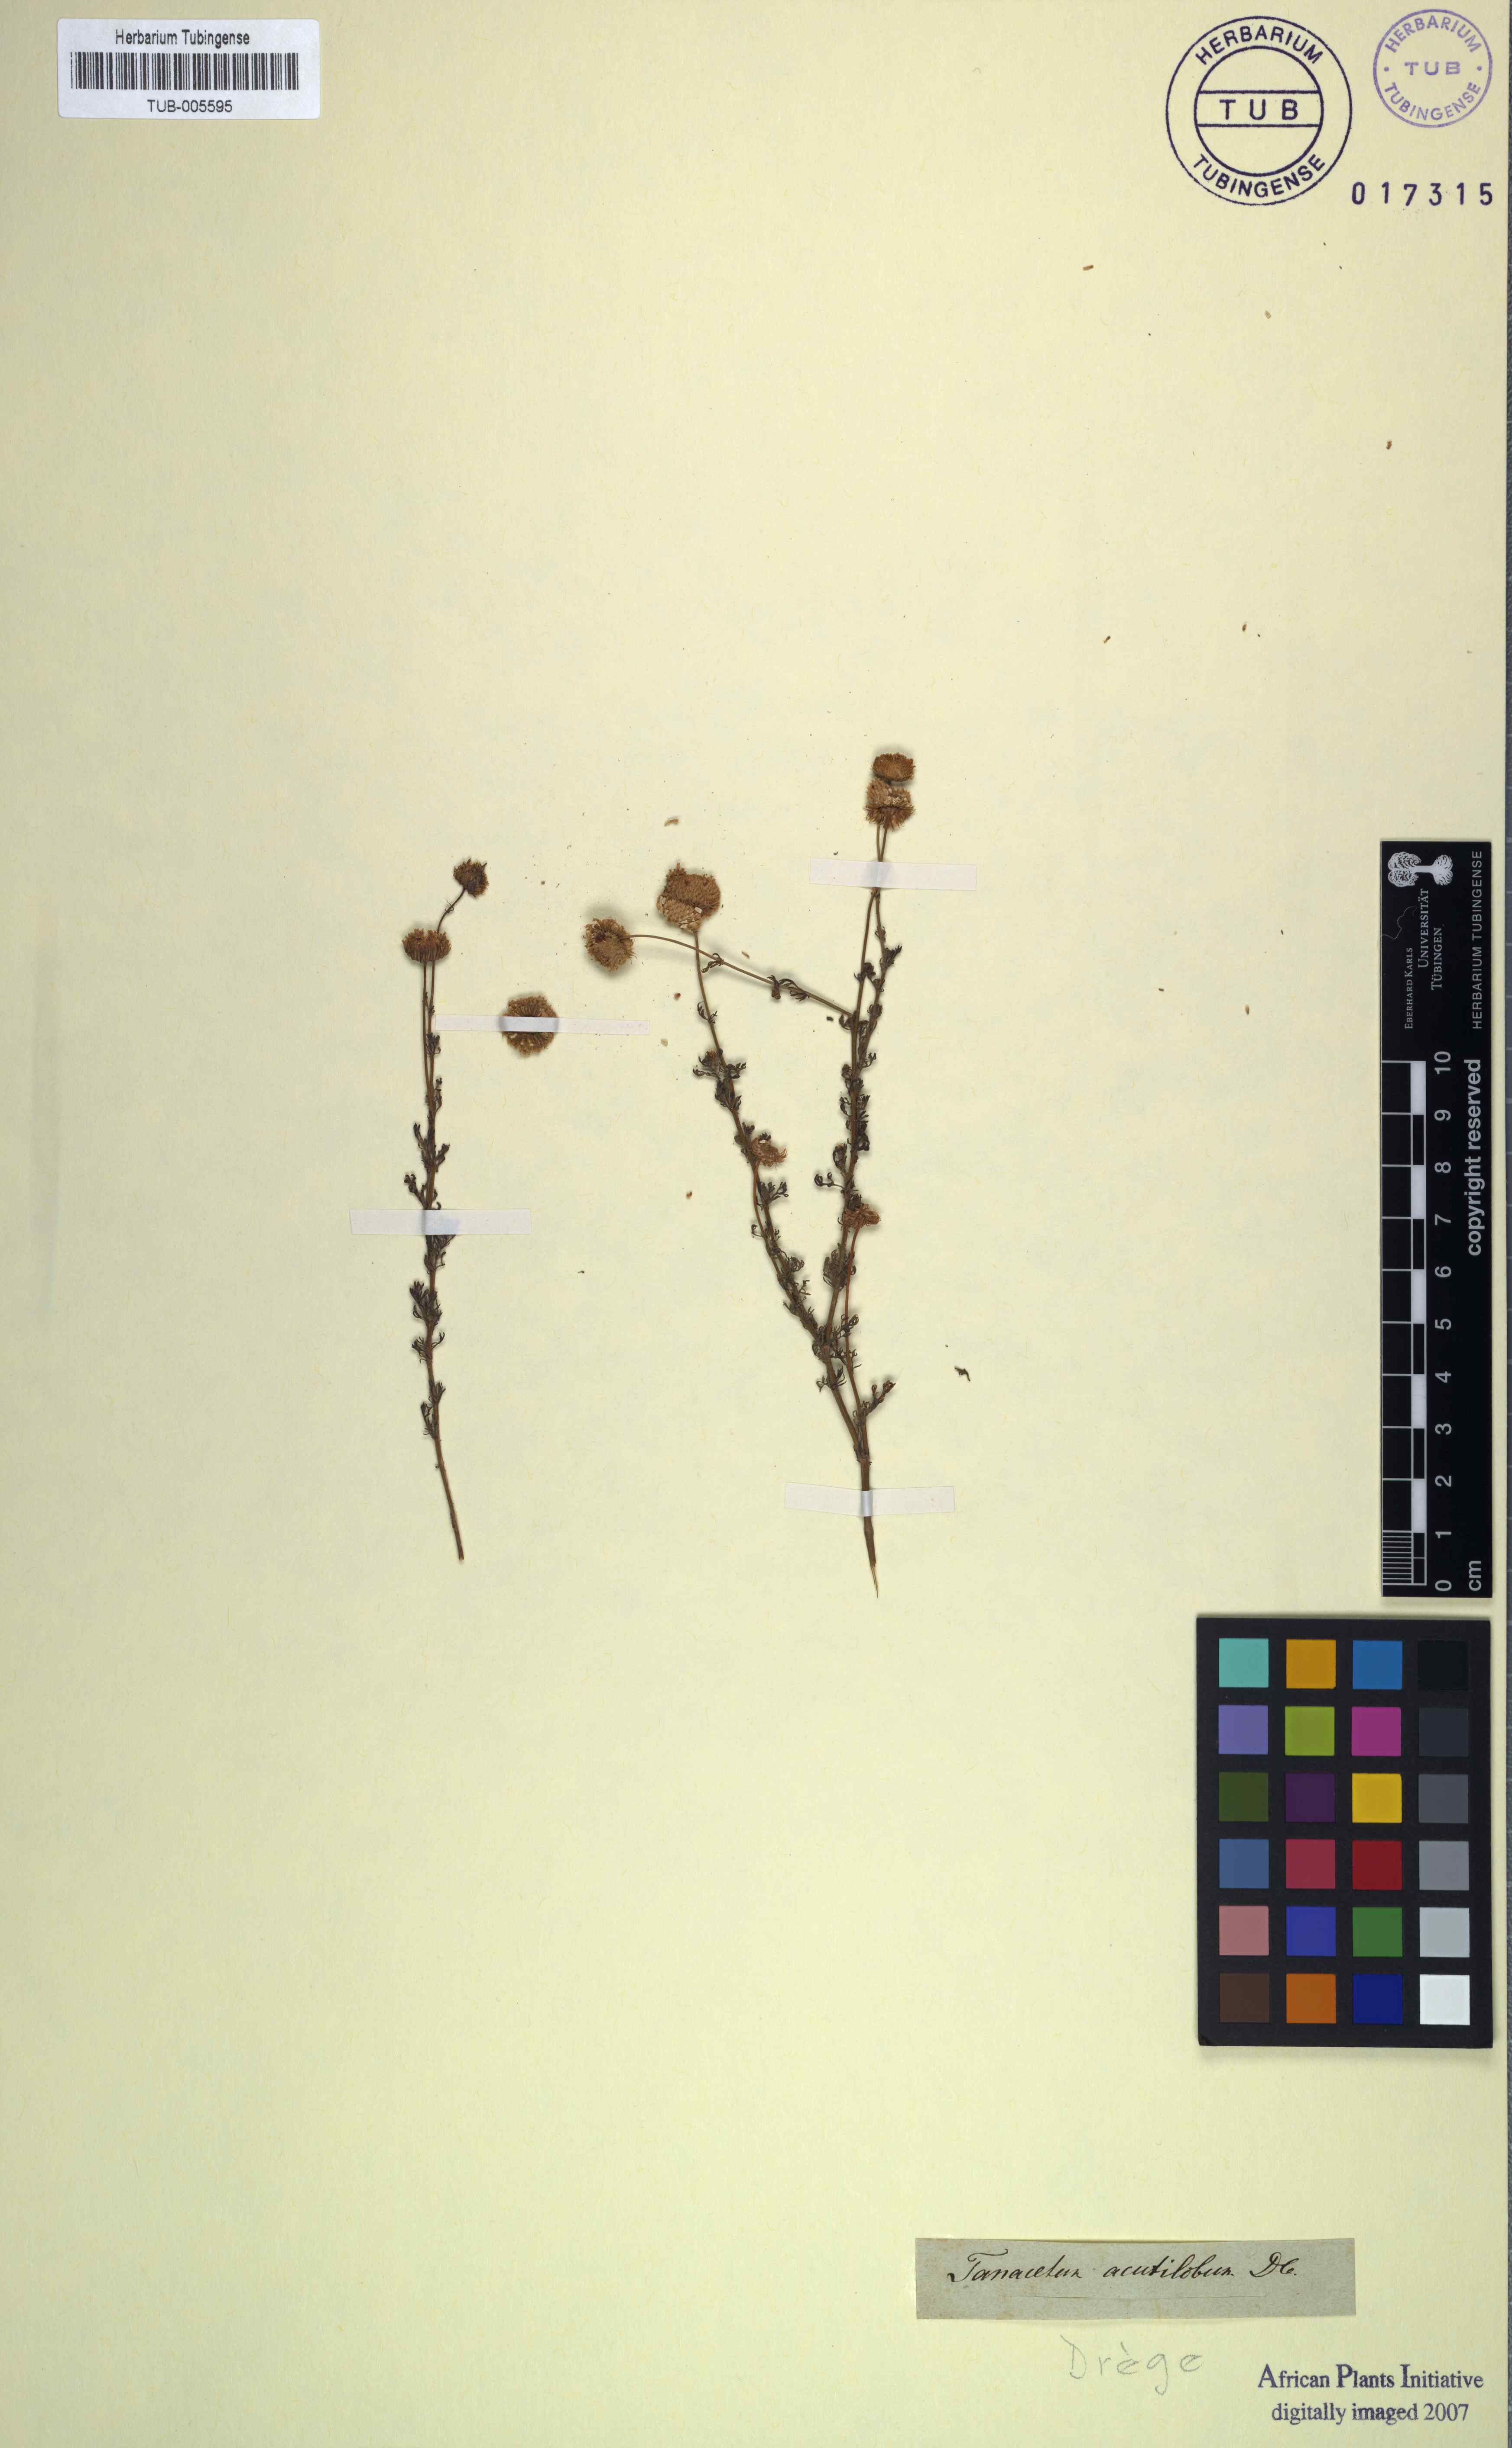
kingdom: Plantae
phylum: Tracheophyta
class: Magnoliopsida
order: Asterales
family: Asteraceae
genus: Myxopappus
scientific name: Myxopappus acutilobus
